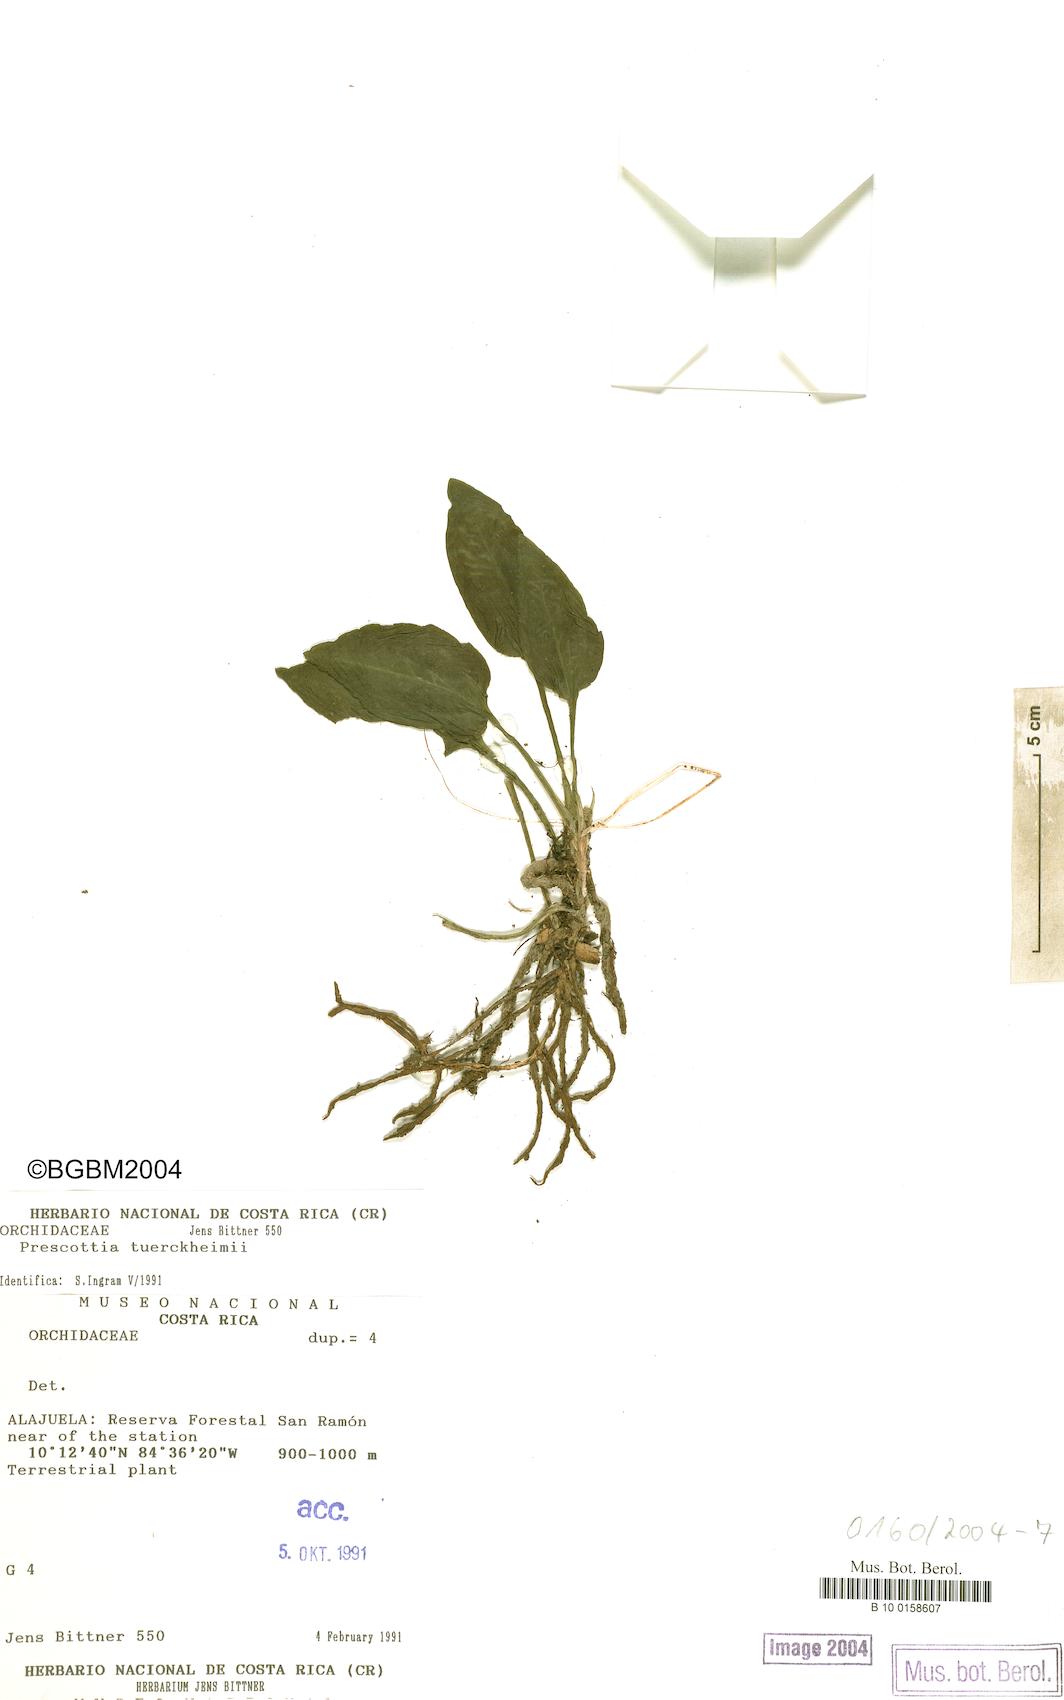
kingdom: Plantae
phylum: Tracheophyta
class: Liliopsida
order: Asparagales
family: Orchidaceae
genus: Prescottia
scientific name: Prescottia
